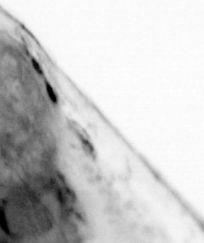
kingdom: Animalia
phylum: Chaetognatha
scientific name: Chaetognatha
